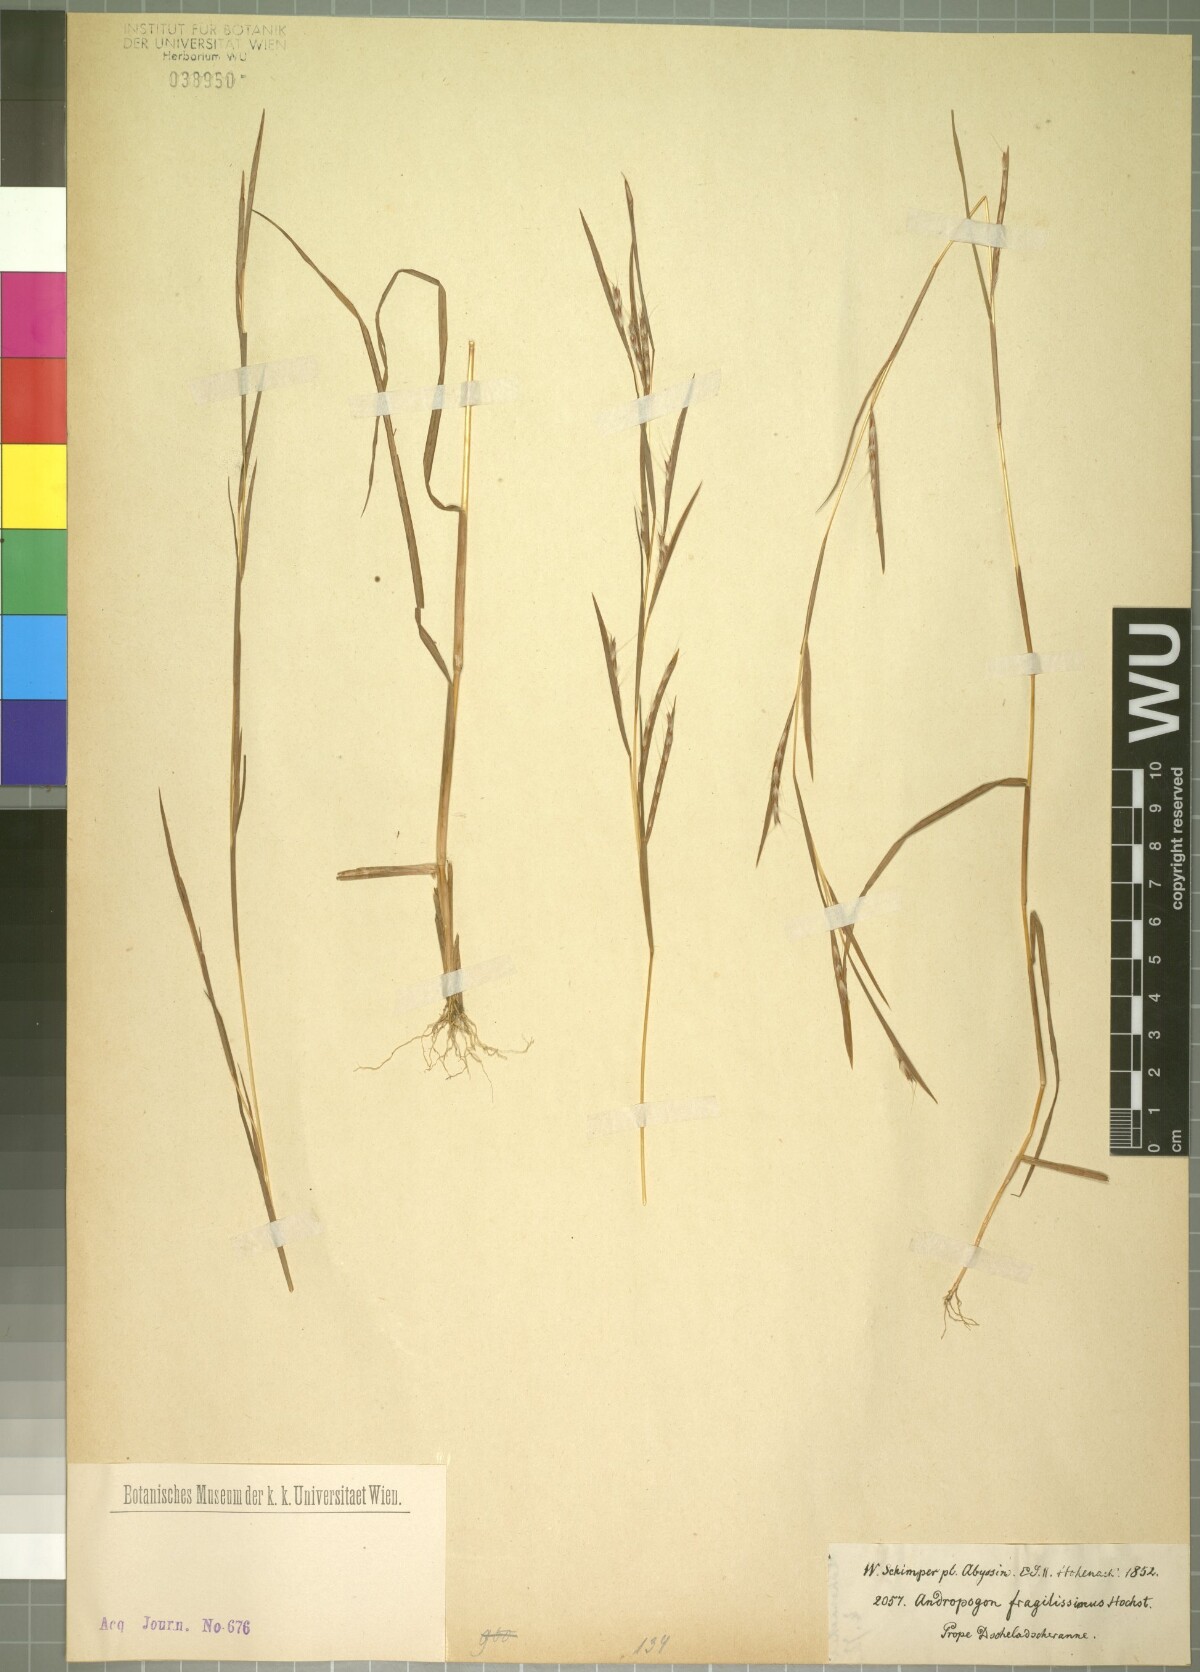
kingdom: Plantae
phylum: Tracheophyta
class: Liliopsida
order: Poales
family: Poaceae
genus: Schizachyrium
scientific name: Schizachyrium exile
